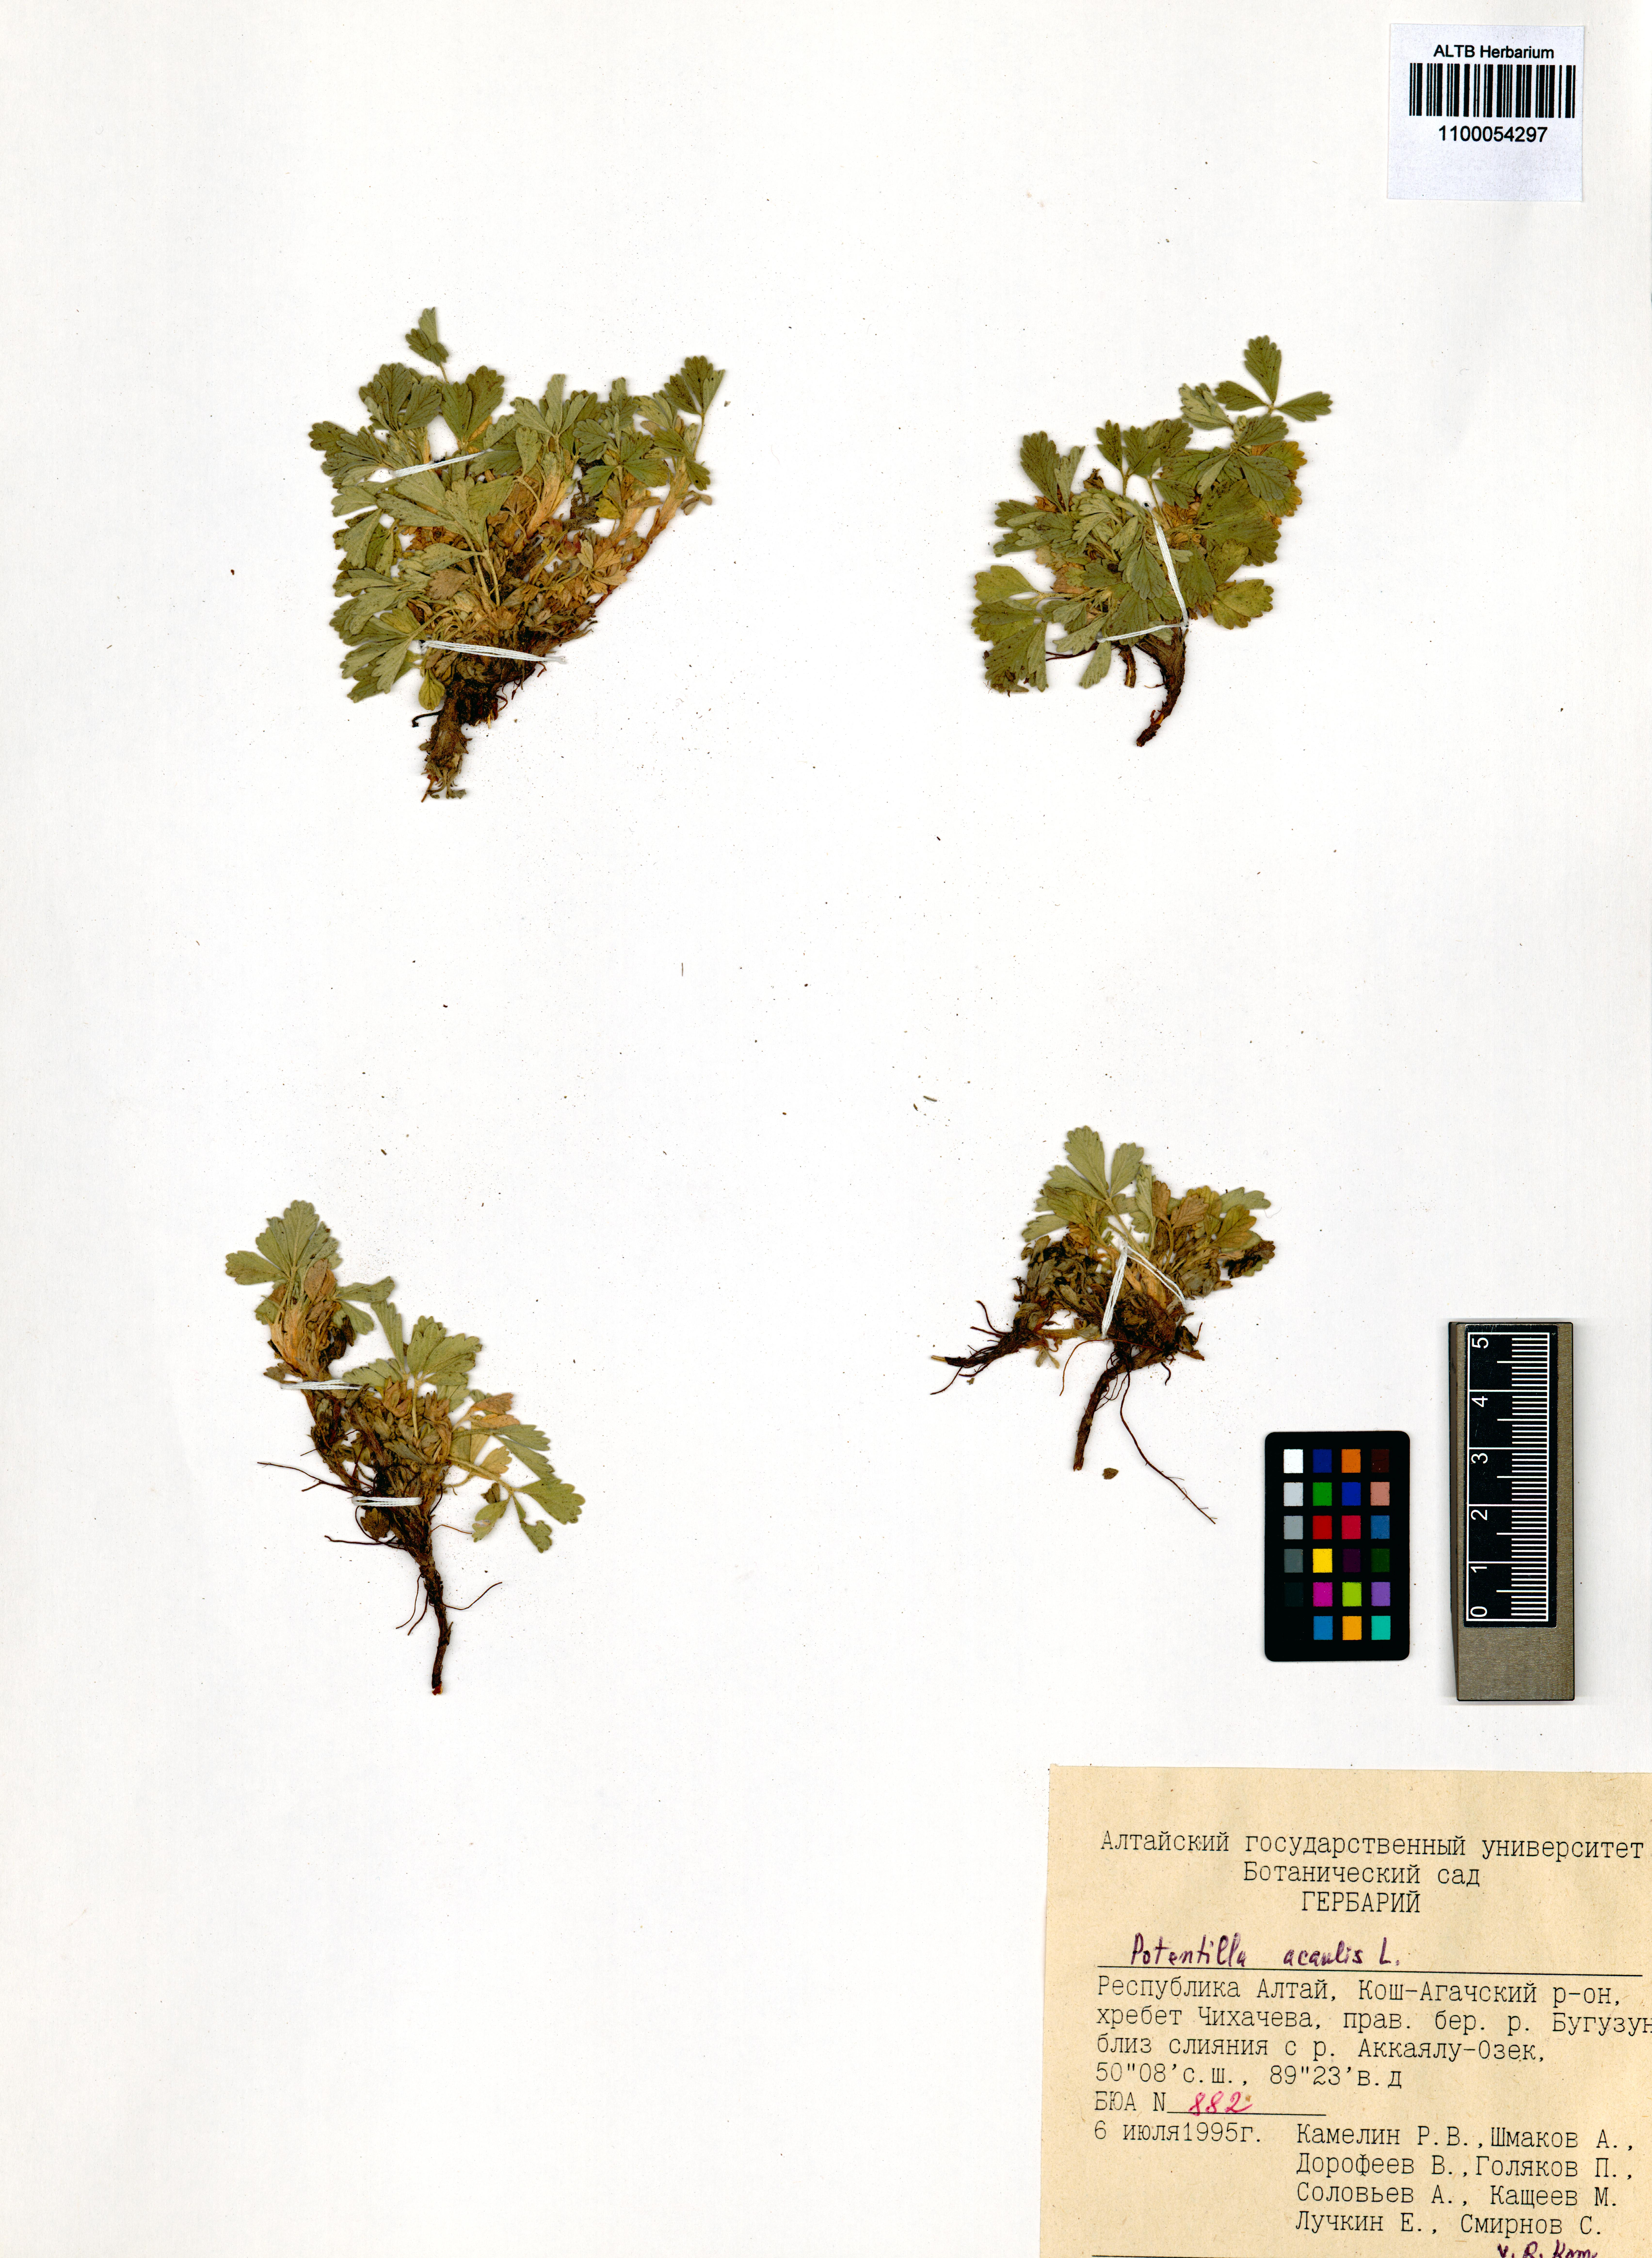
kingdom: Plantae
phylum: Tracheophyta
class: Magnoliopsida
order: Rosales
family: Rosaceae
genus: Potentilla
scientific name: Potentilla acaulis
